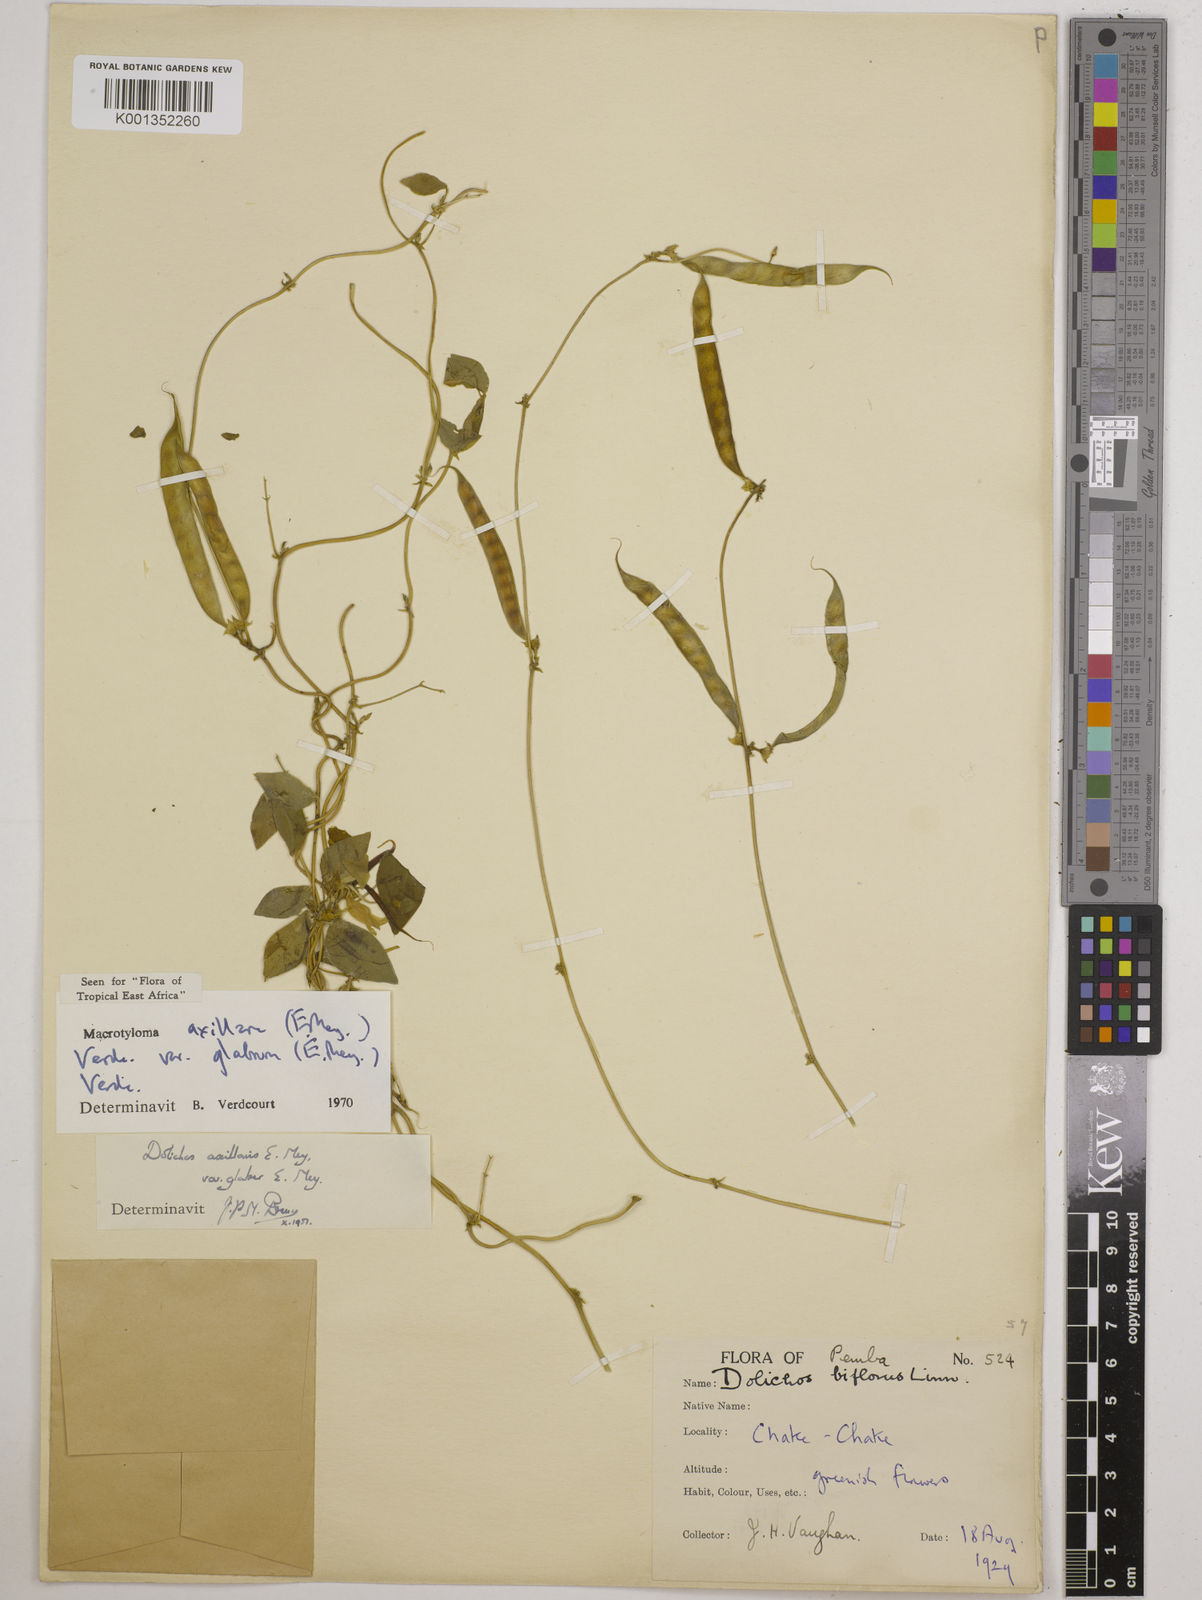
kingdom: Plantae
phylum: Tracheophyta
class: Magnoliopsida
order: Fabales
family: Fabaceae
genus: Macrotyloma
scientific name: Macrotyloma
